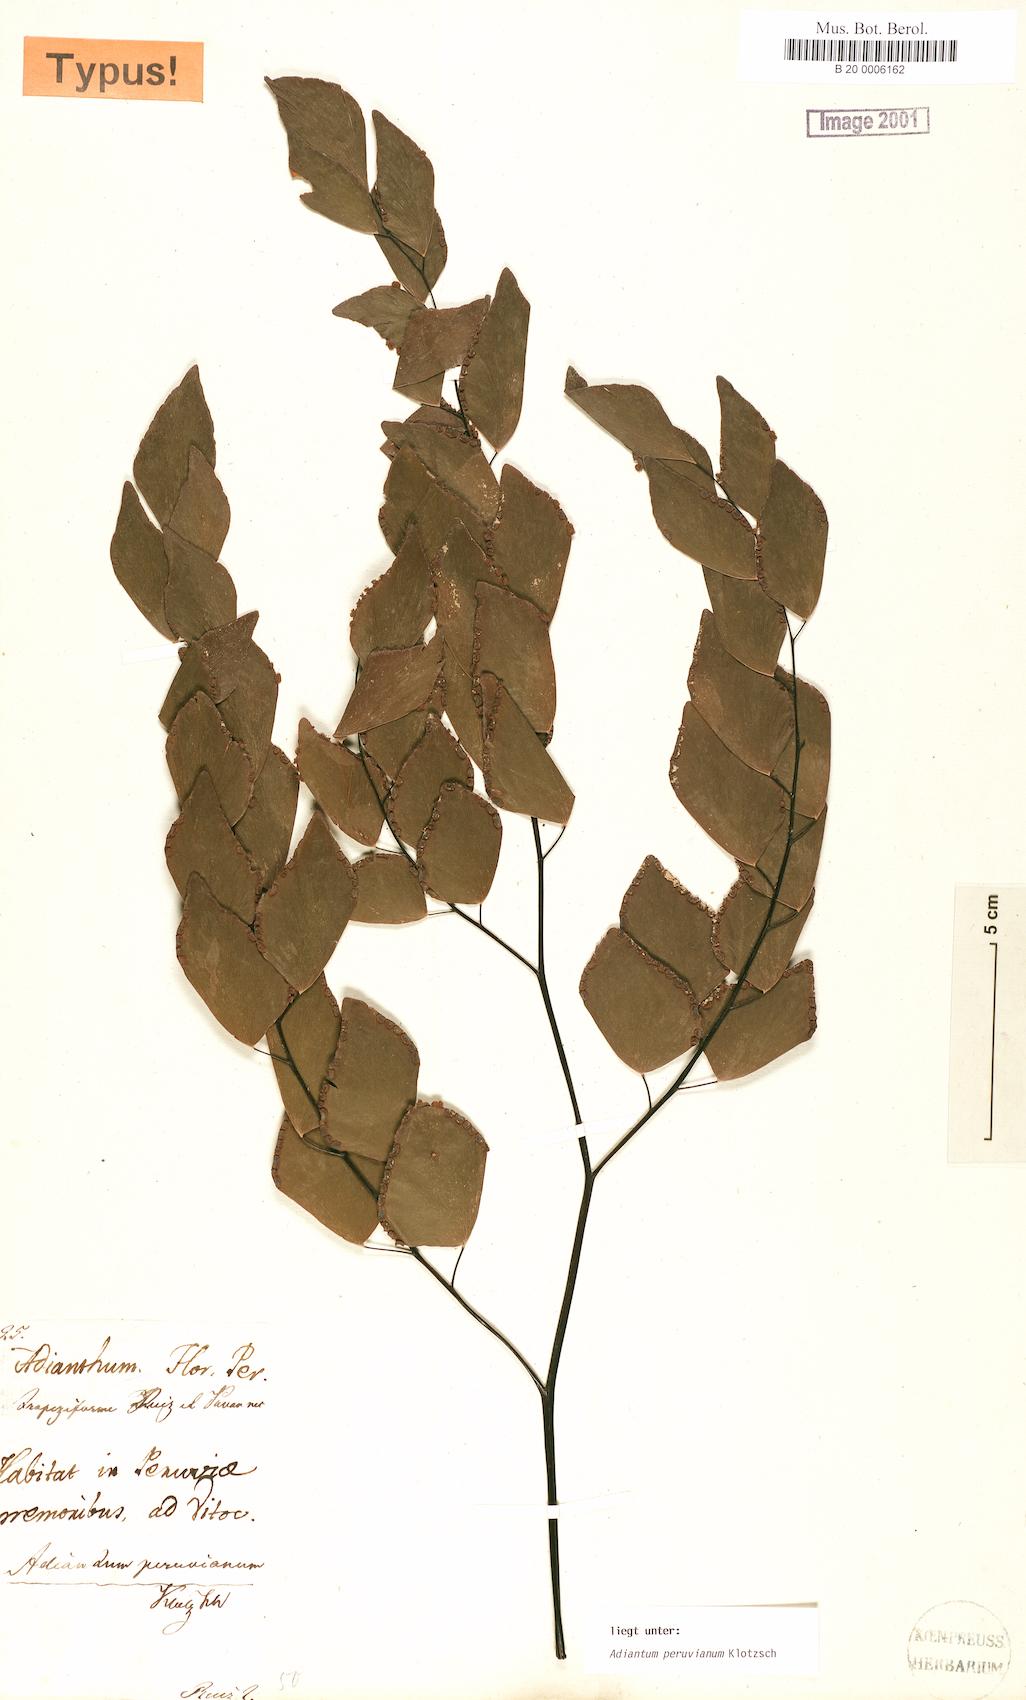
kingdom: Plantae
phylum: Tracheophyta
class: Polypodiopsida
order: Polypodiales
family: Pteridaceae
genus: Adiantum
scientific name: Adiantum peruvianum
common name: Silver-dollar maidenhair fern
